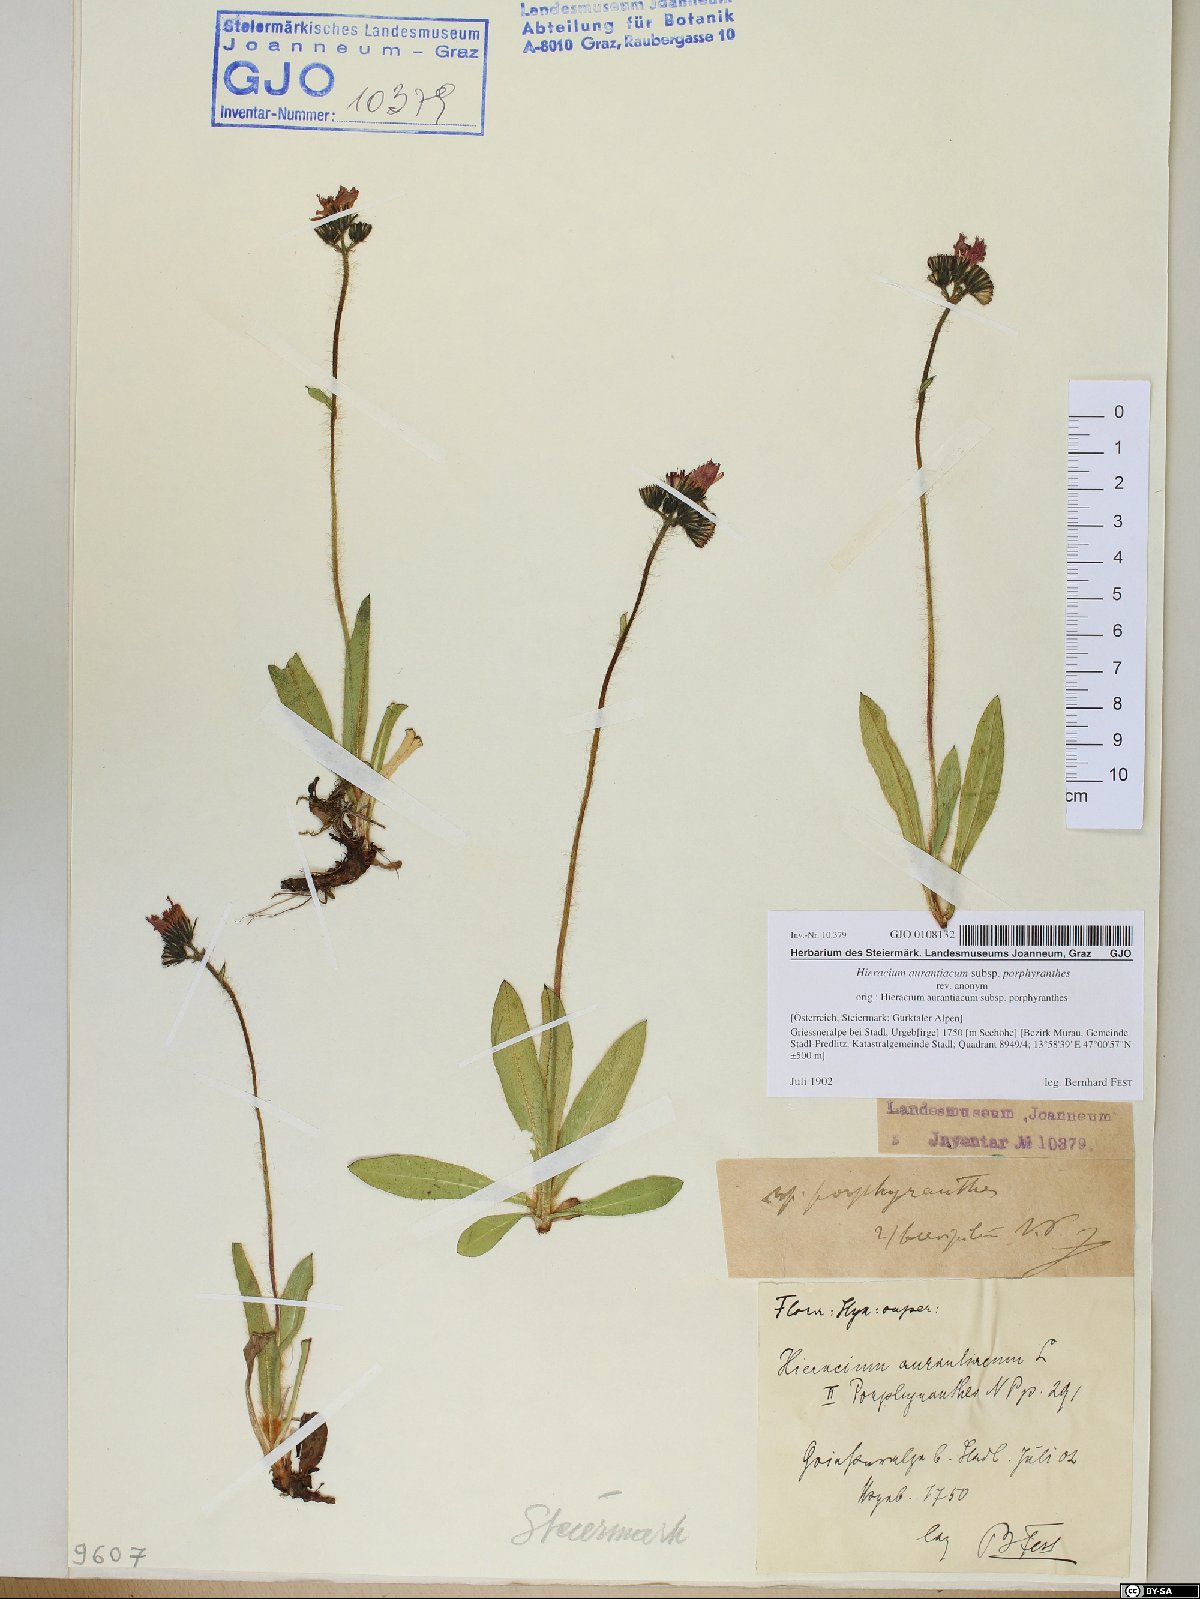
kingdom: Plantae
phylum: Tracheophyta
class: Magnoliopsida
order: Asterales
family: Asteraceae
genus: Pilosella
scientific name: Pilosella aurantiaca
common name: Fox-and-cubs
